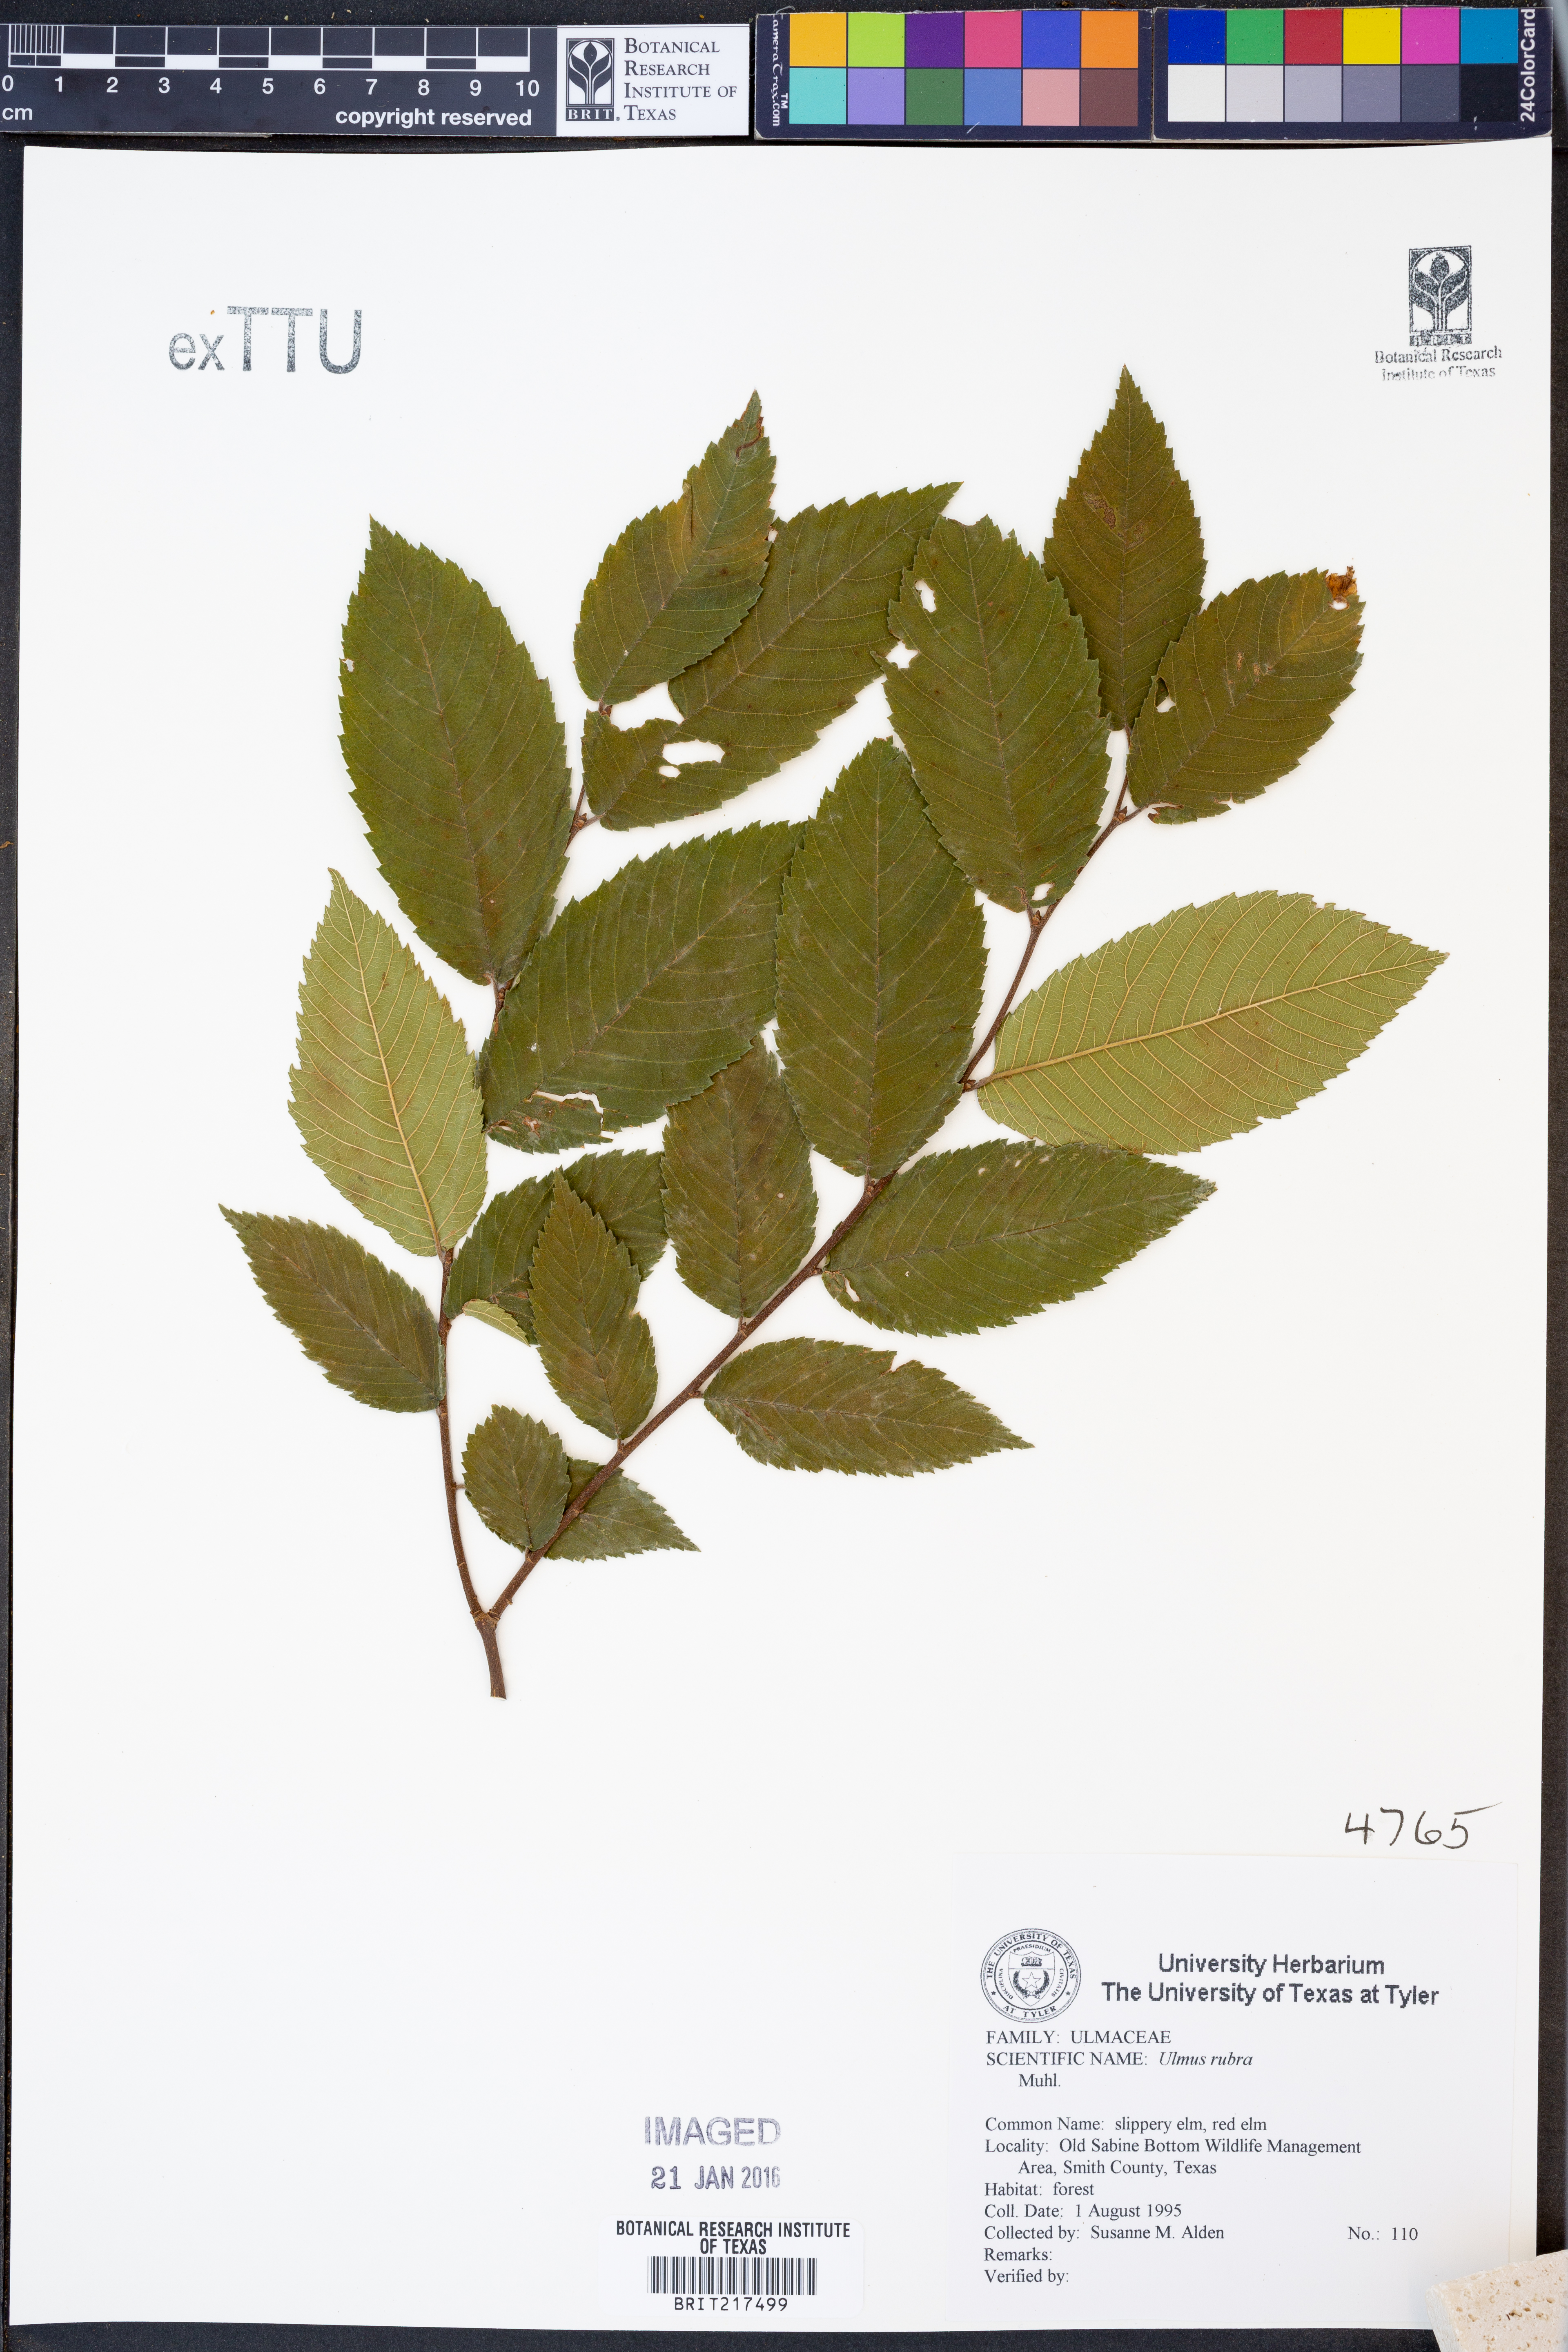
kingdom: Plantae
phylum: Tracheophyta
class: Magnoliopsida
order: Rosales
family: Ulmaceae
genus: Ulmus
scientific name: Ulmus rubra
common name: Slippery elm
